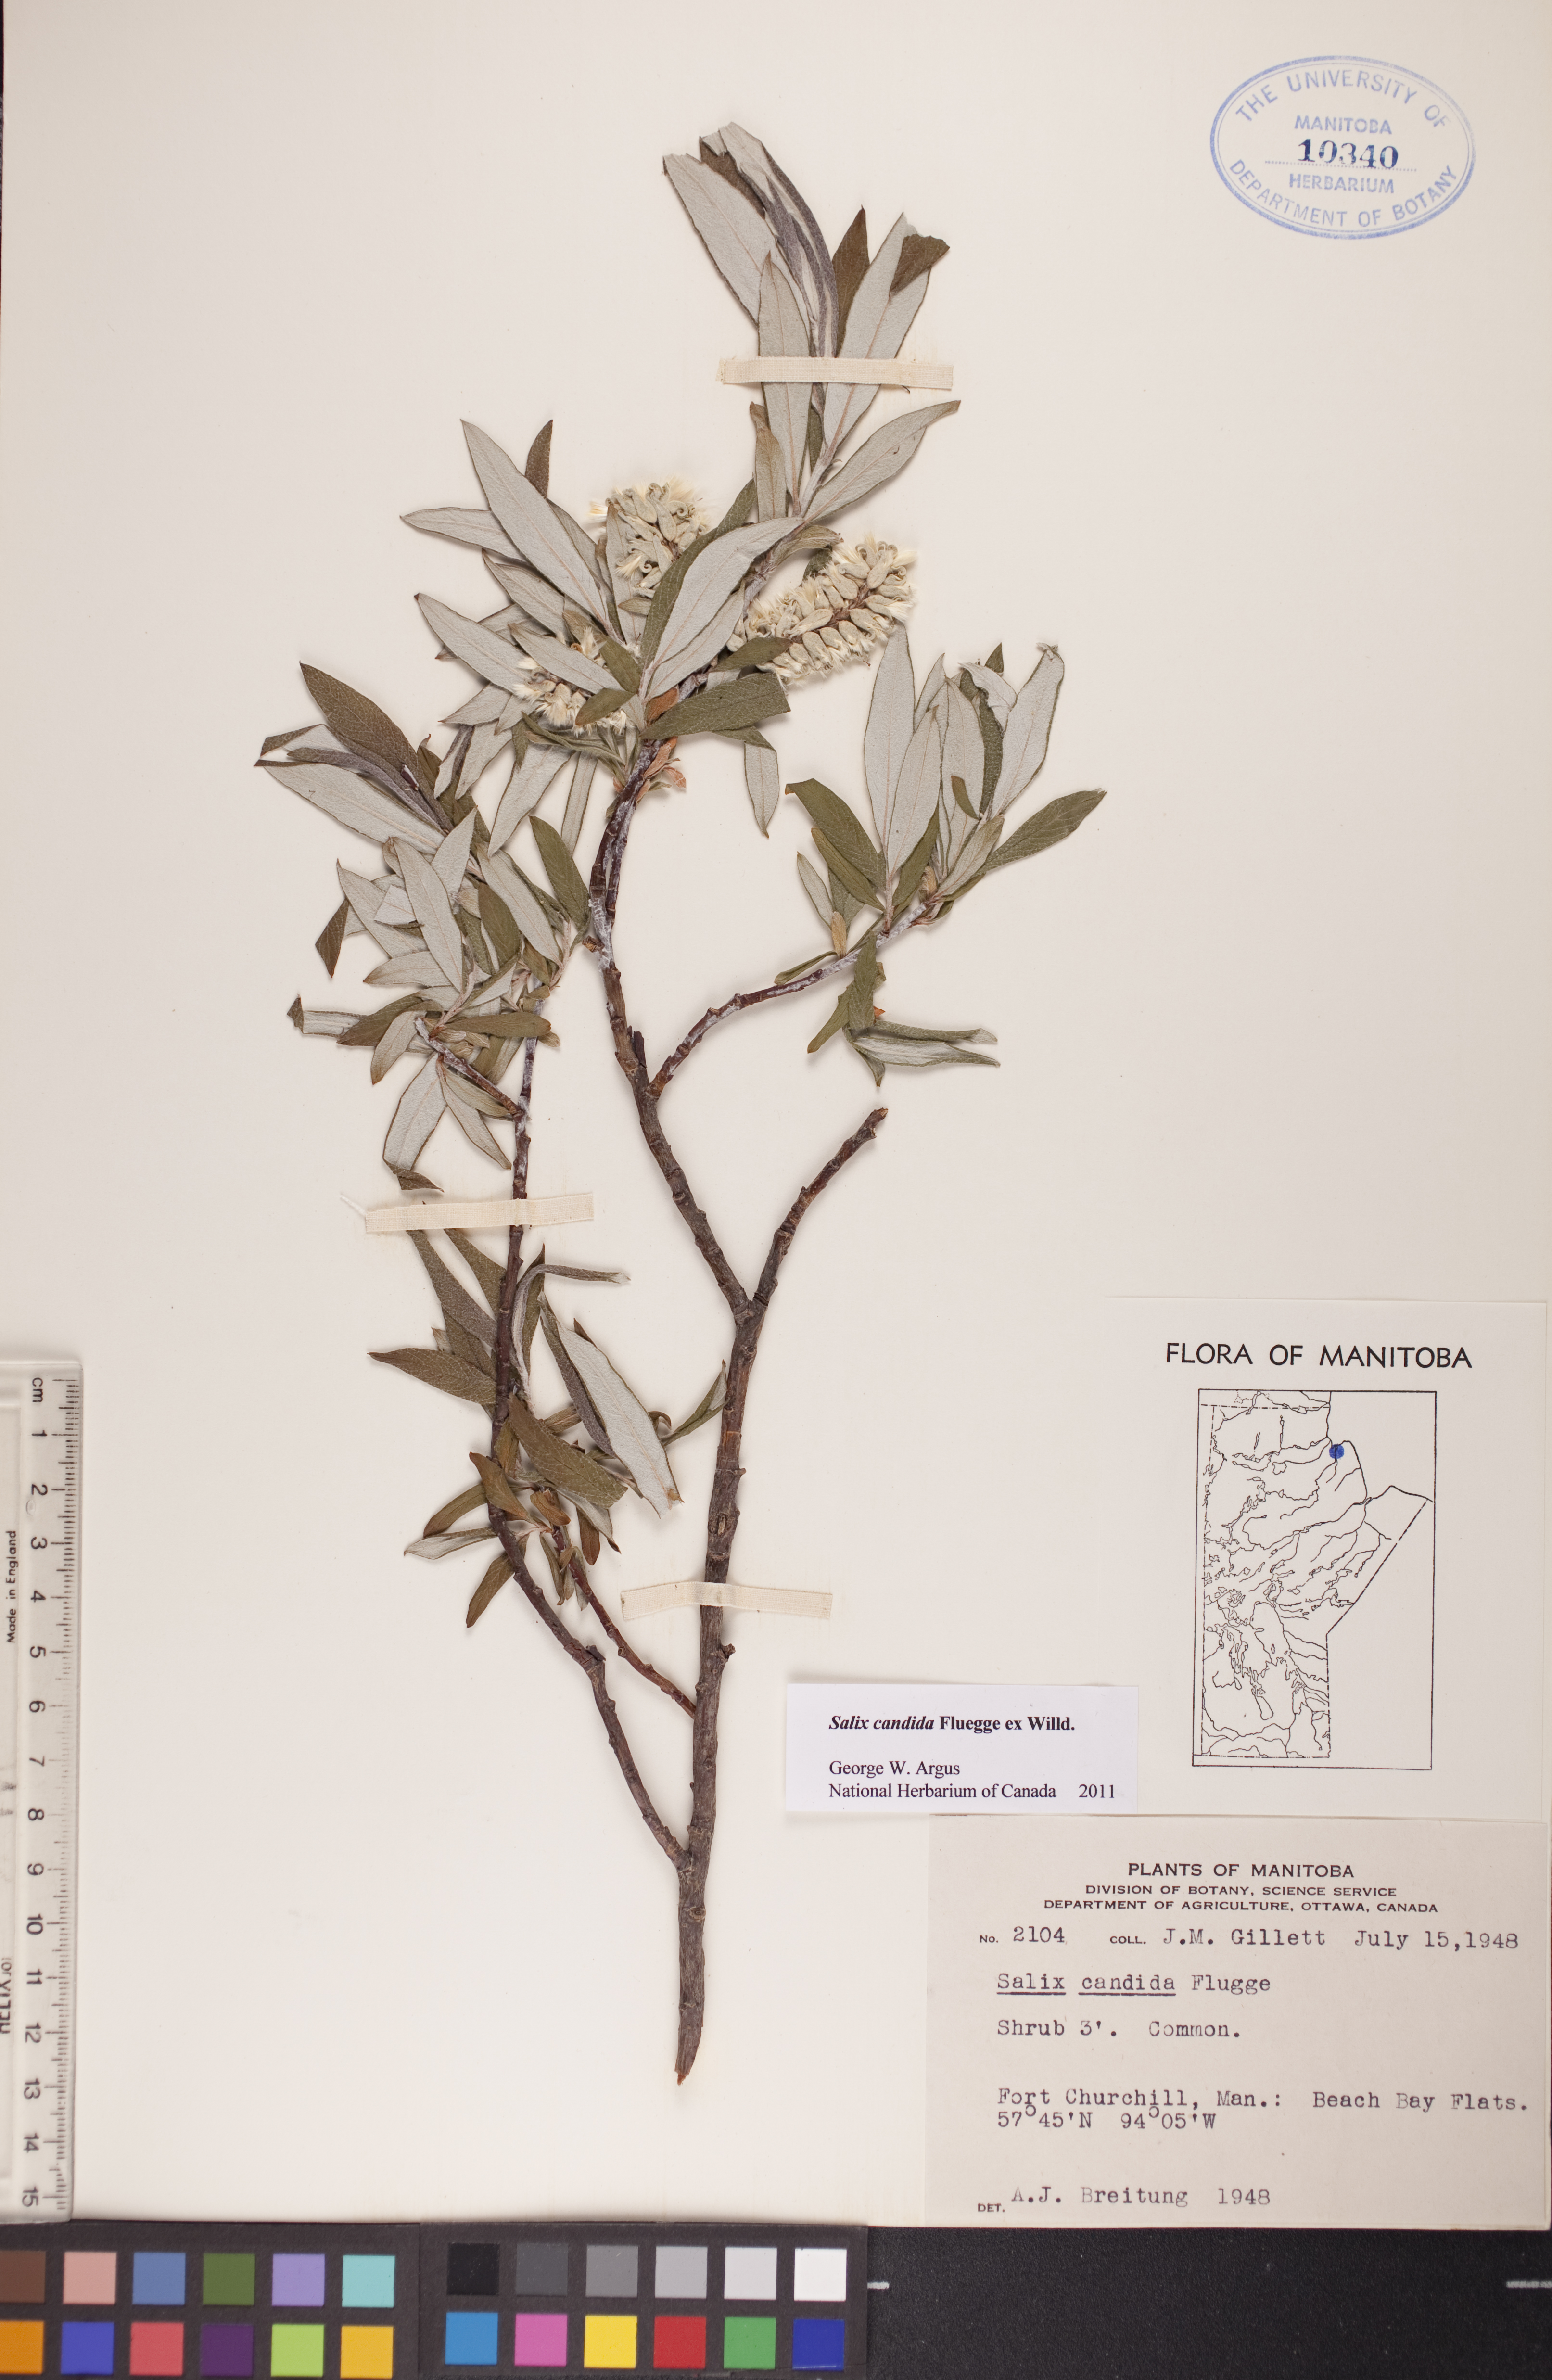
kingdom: Plantae
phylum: Tracheophyta
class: Magnoliopsida
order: Malpighiales
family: Salicaceae
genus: Salix
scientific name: Salix candida
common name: Hoary willow
